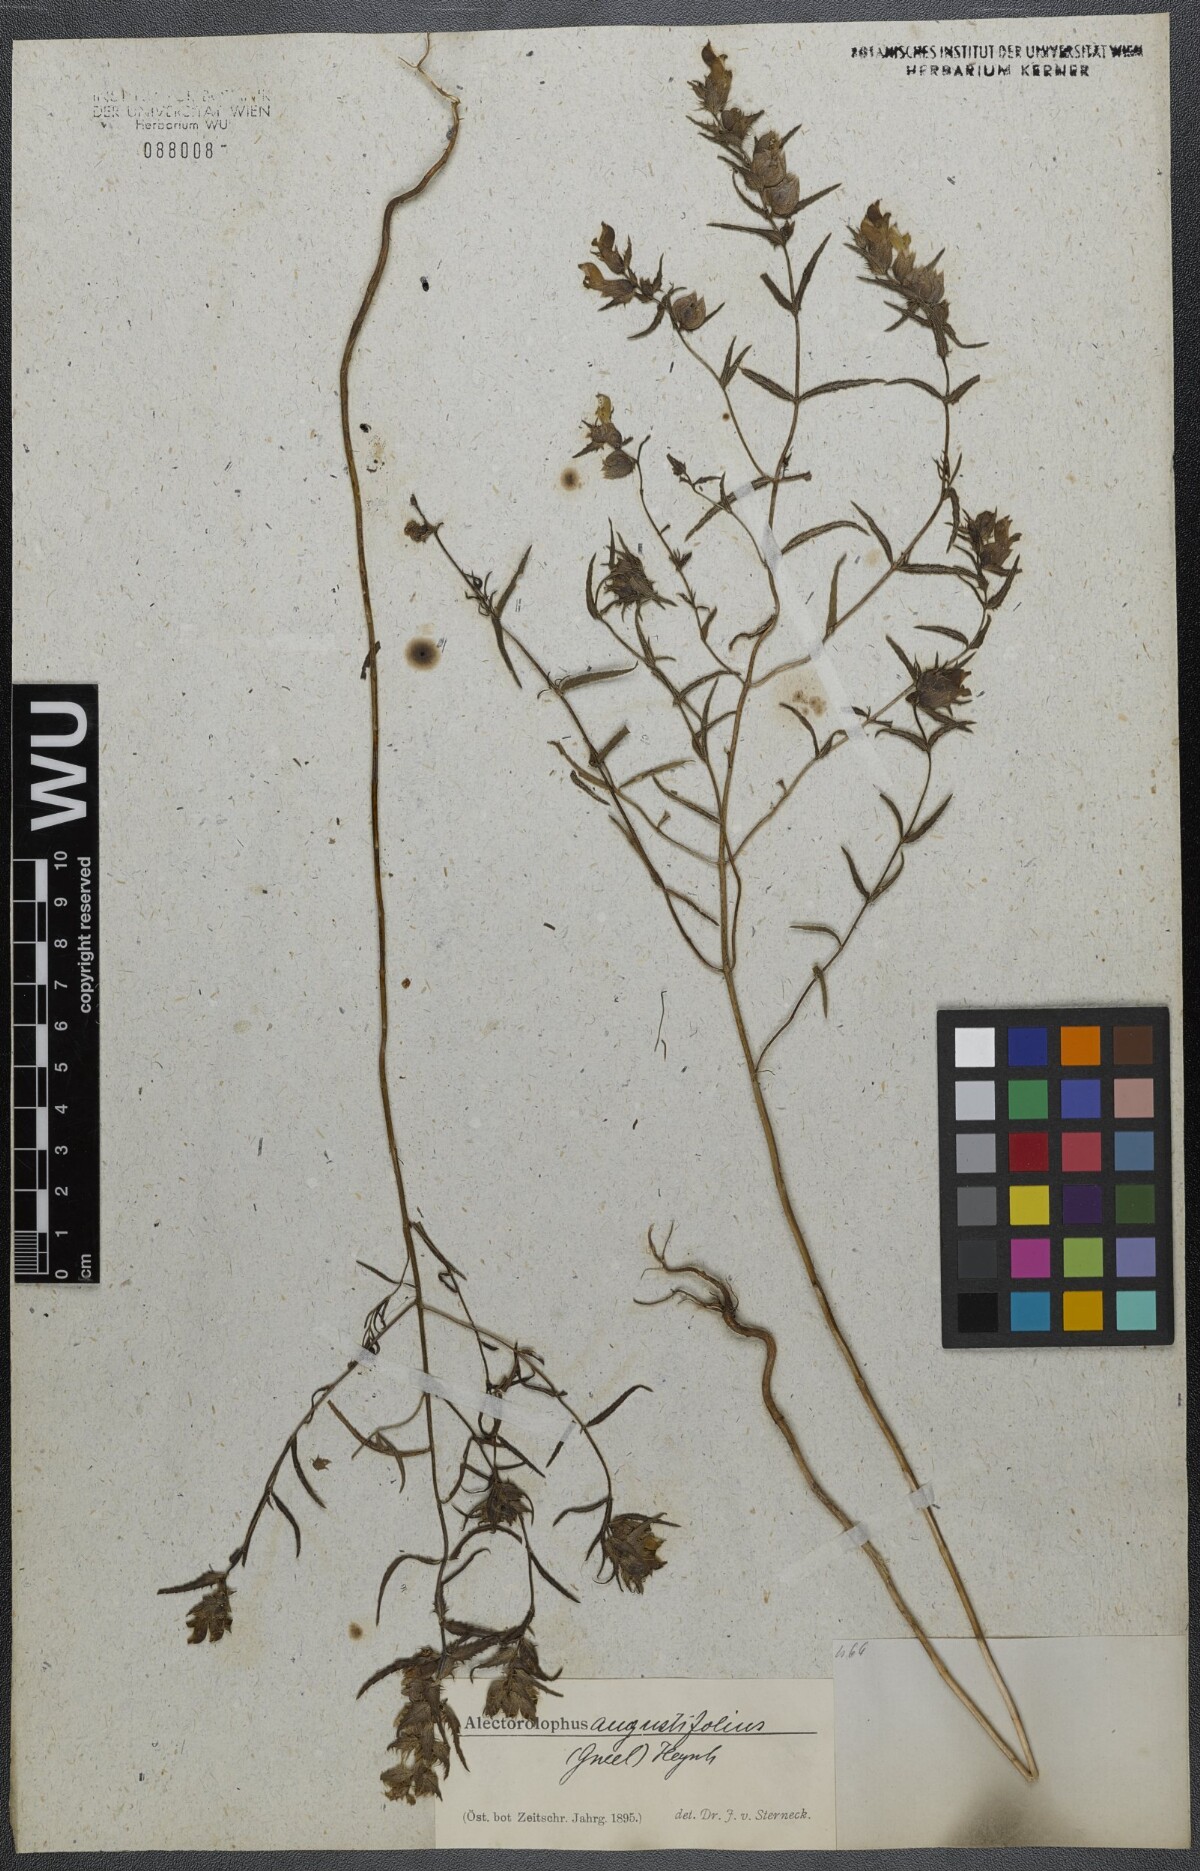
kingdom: Plantae
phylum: Tracheophyta
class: Magnoliopsida
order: Lamiales
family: Orobanchaceae
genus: Rhinanthus
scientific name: Rhinanthus
